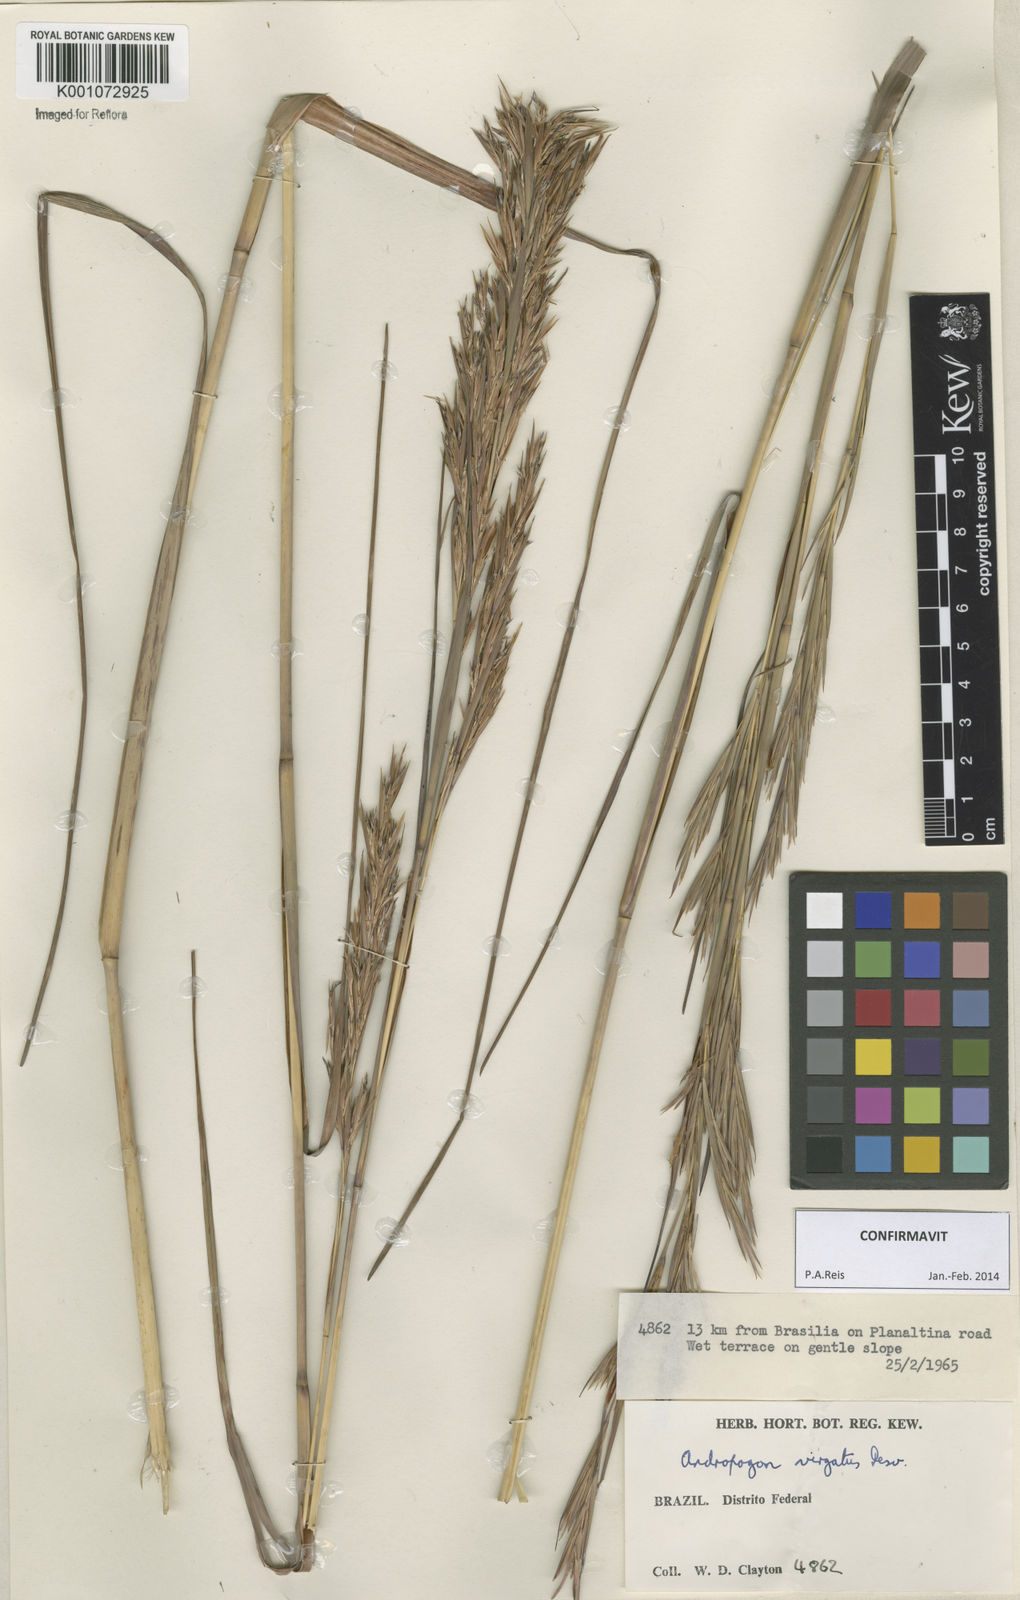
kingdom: Plantae
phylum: Tracheophyta
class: Liliopsida
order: Poales
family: Poaceae
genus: Andropogon
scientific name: Andropogon virgatus
